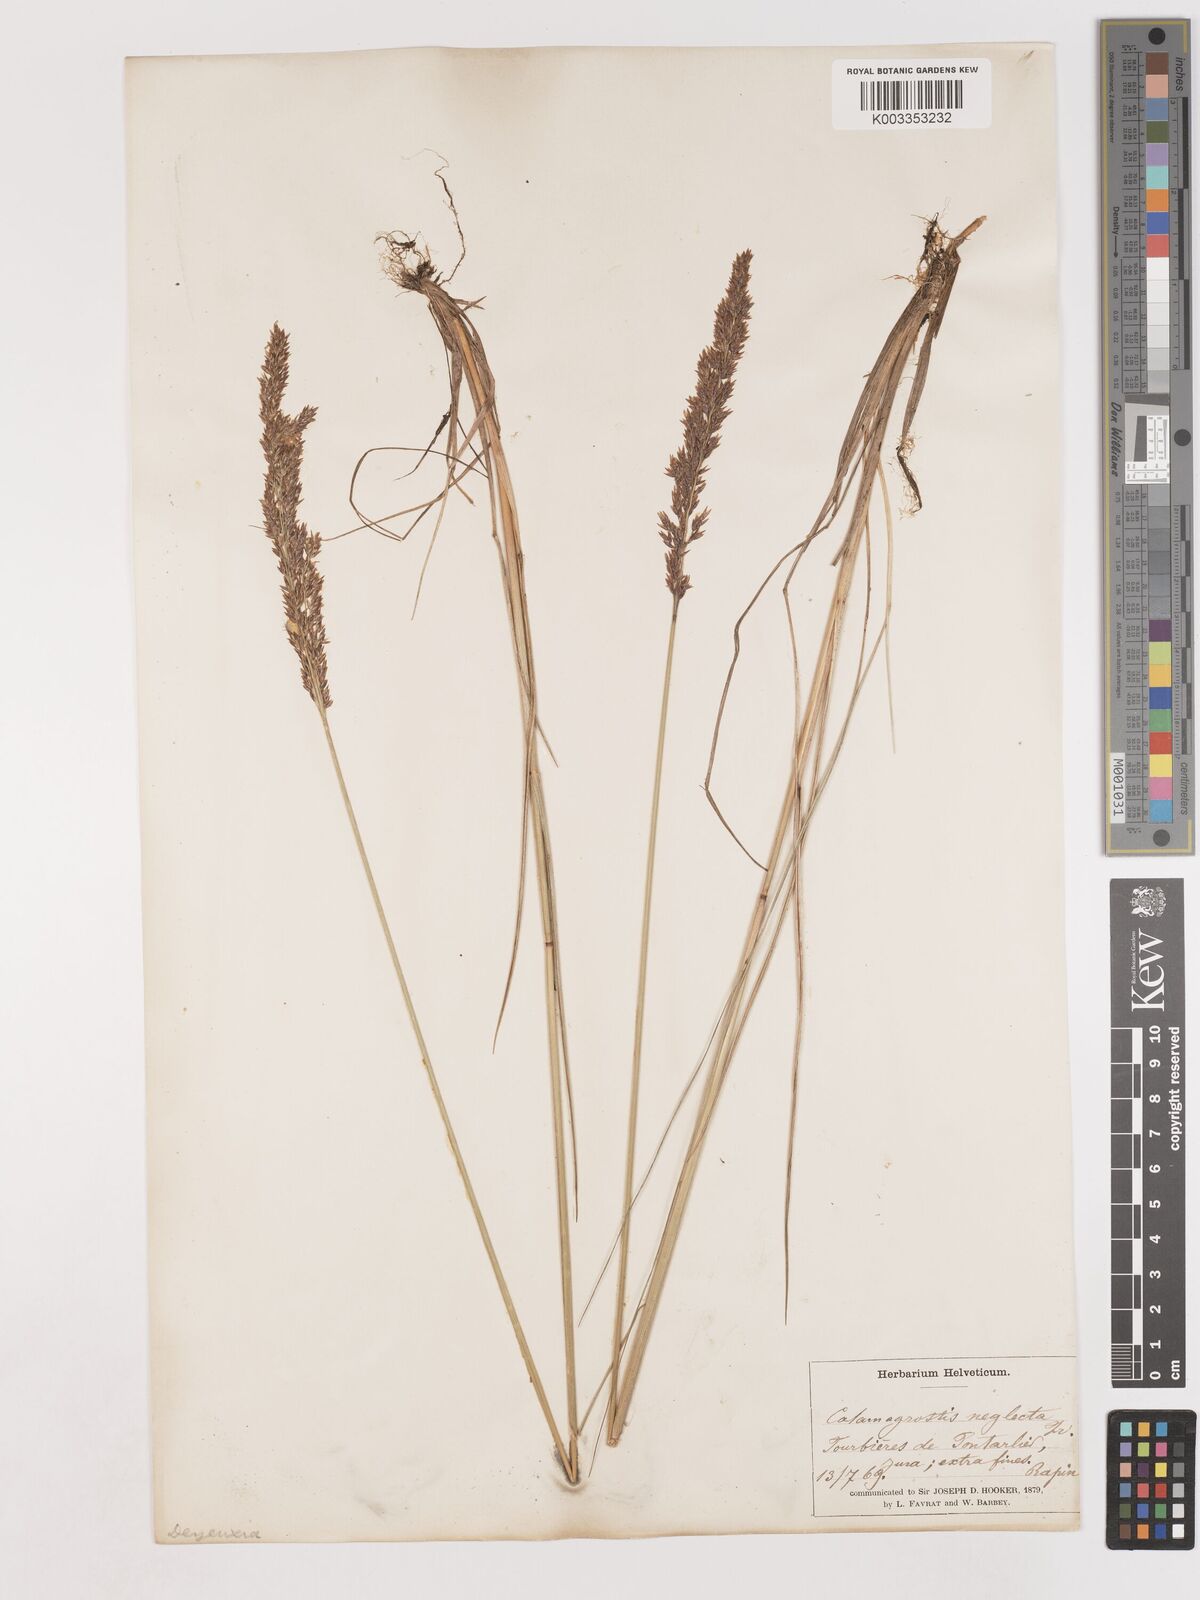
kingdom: Plantae
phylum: Tracheophyta
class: Liliopsida
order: Poales
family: Poaceae
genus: Cinnagrostis
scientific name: Cinnagrostis recta
